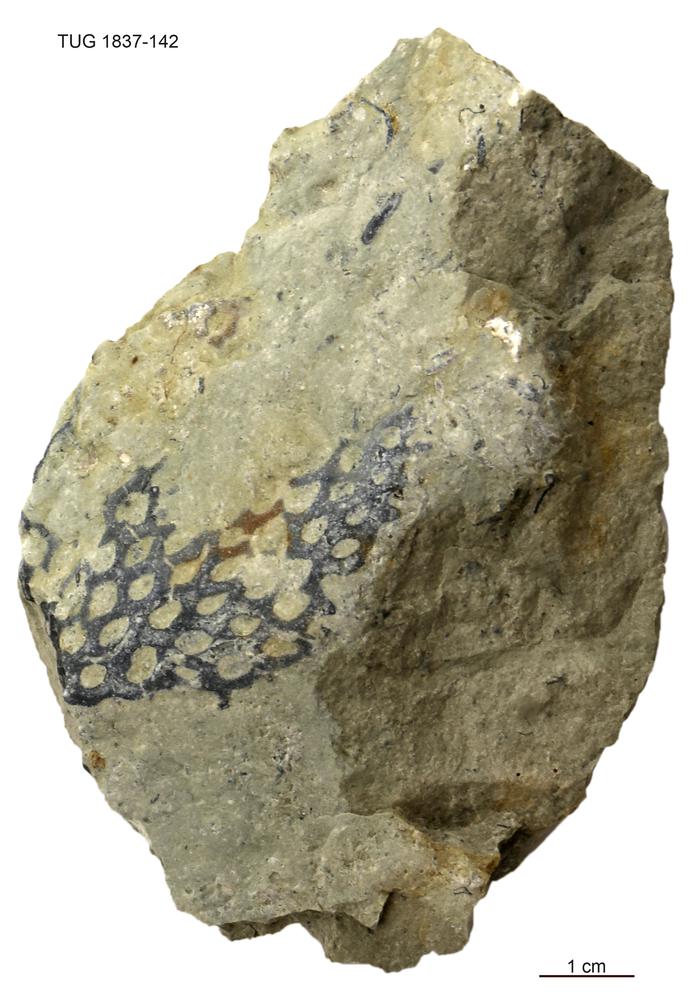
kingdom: Animalia
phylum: Bryozoa
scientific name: Bryozoa
